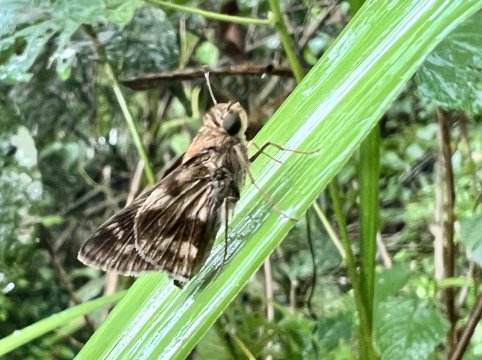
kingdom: Animalia
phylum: Arthropoda
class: Insecta
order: Lepidoptera
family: Hesperiidae
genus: Pompeius
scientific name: Pompeius pompeius
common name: Pompeius Skipper
